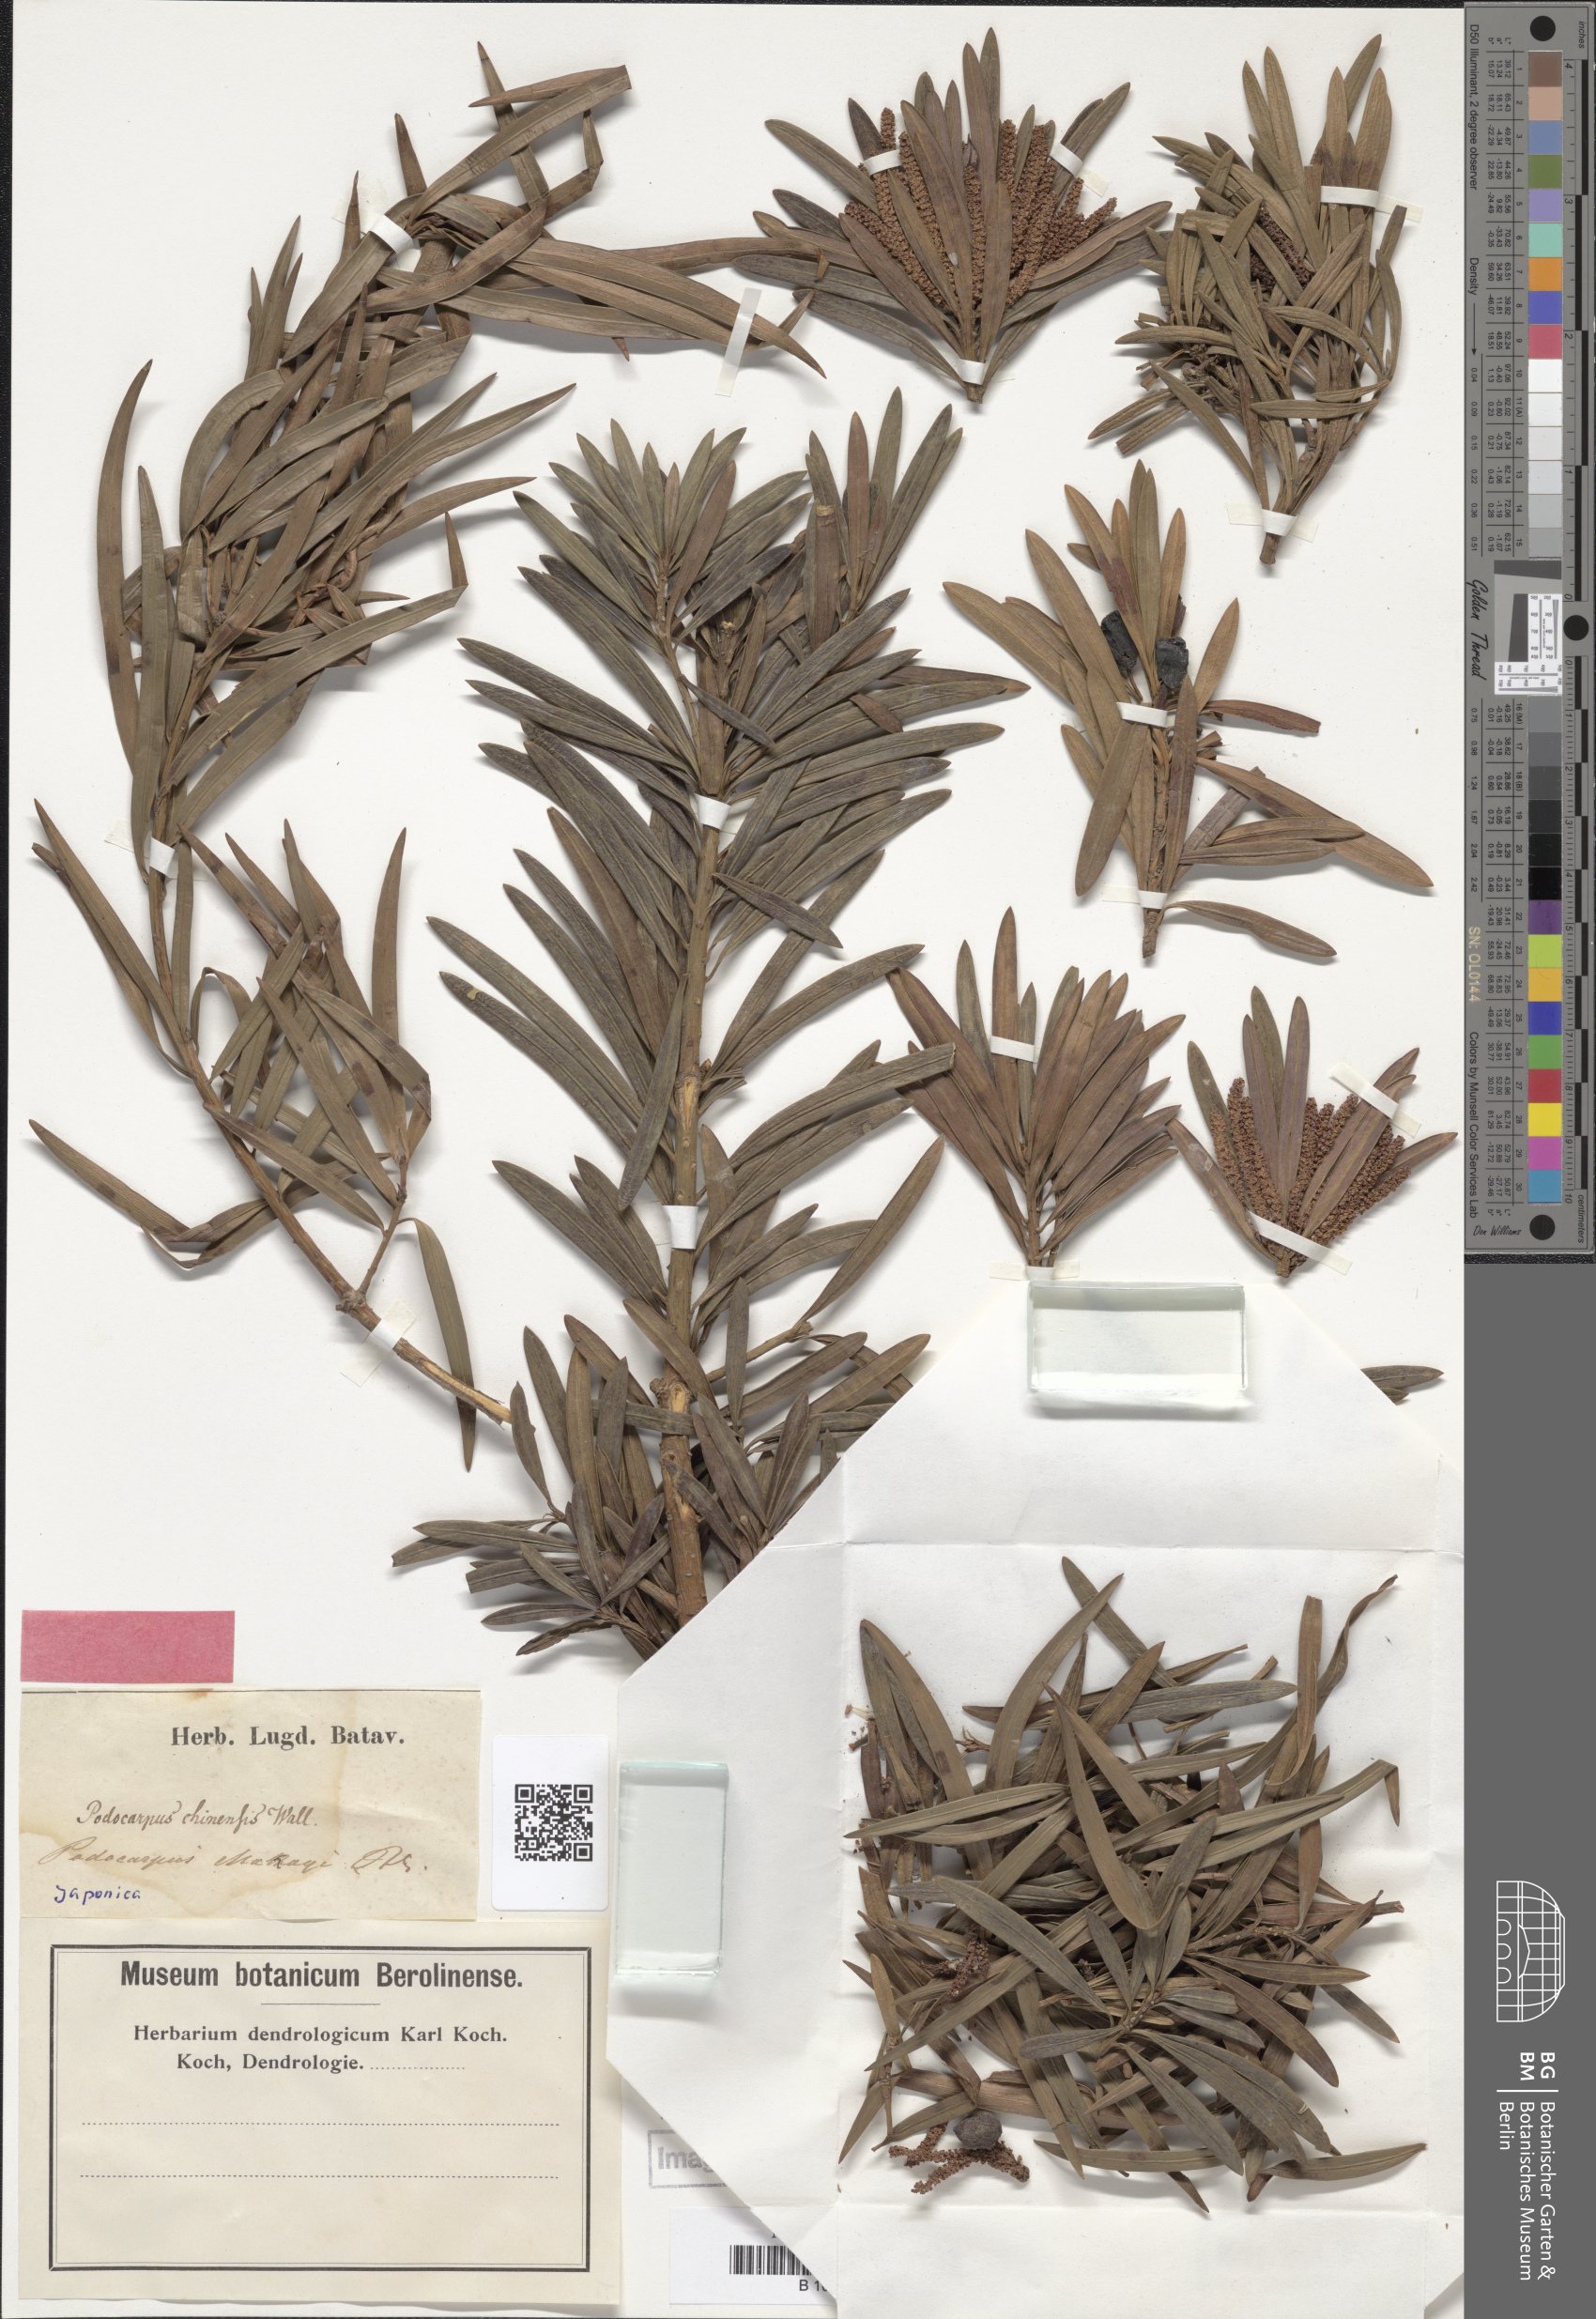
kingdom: Plantae
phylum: Tracheophyta
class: Pinopsida
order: Pinales
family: Podocarpaceae
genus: Podocarpus
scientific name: Podocarpus macrophyllus
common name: Japanese yew
